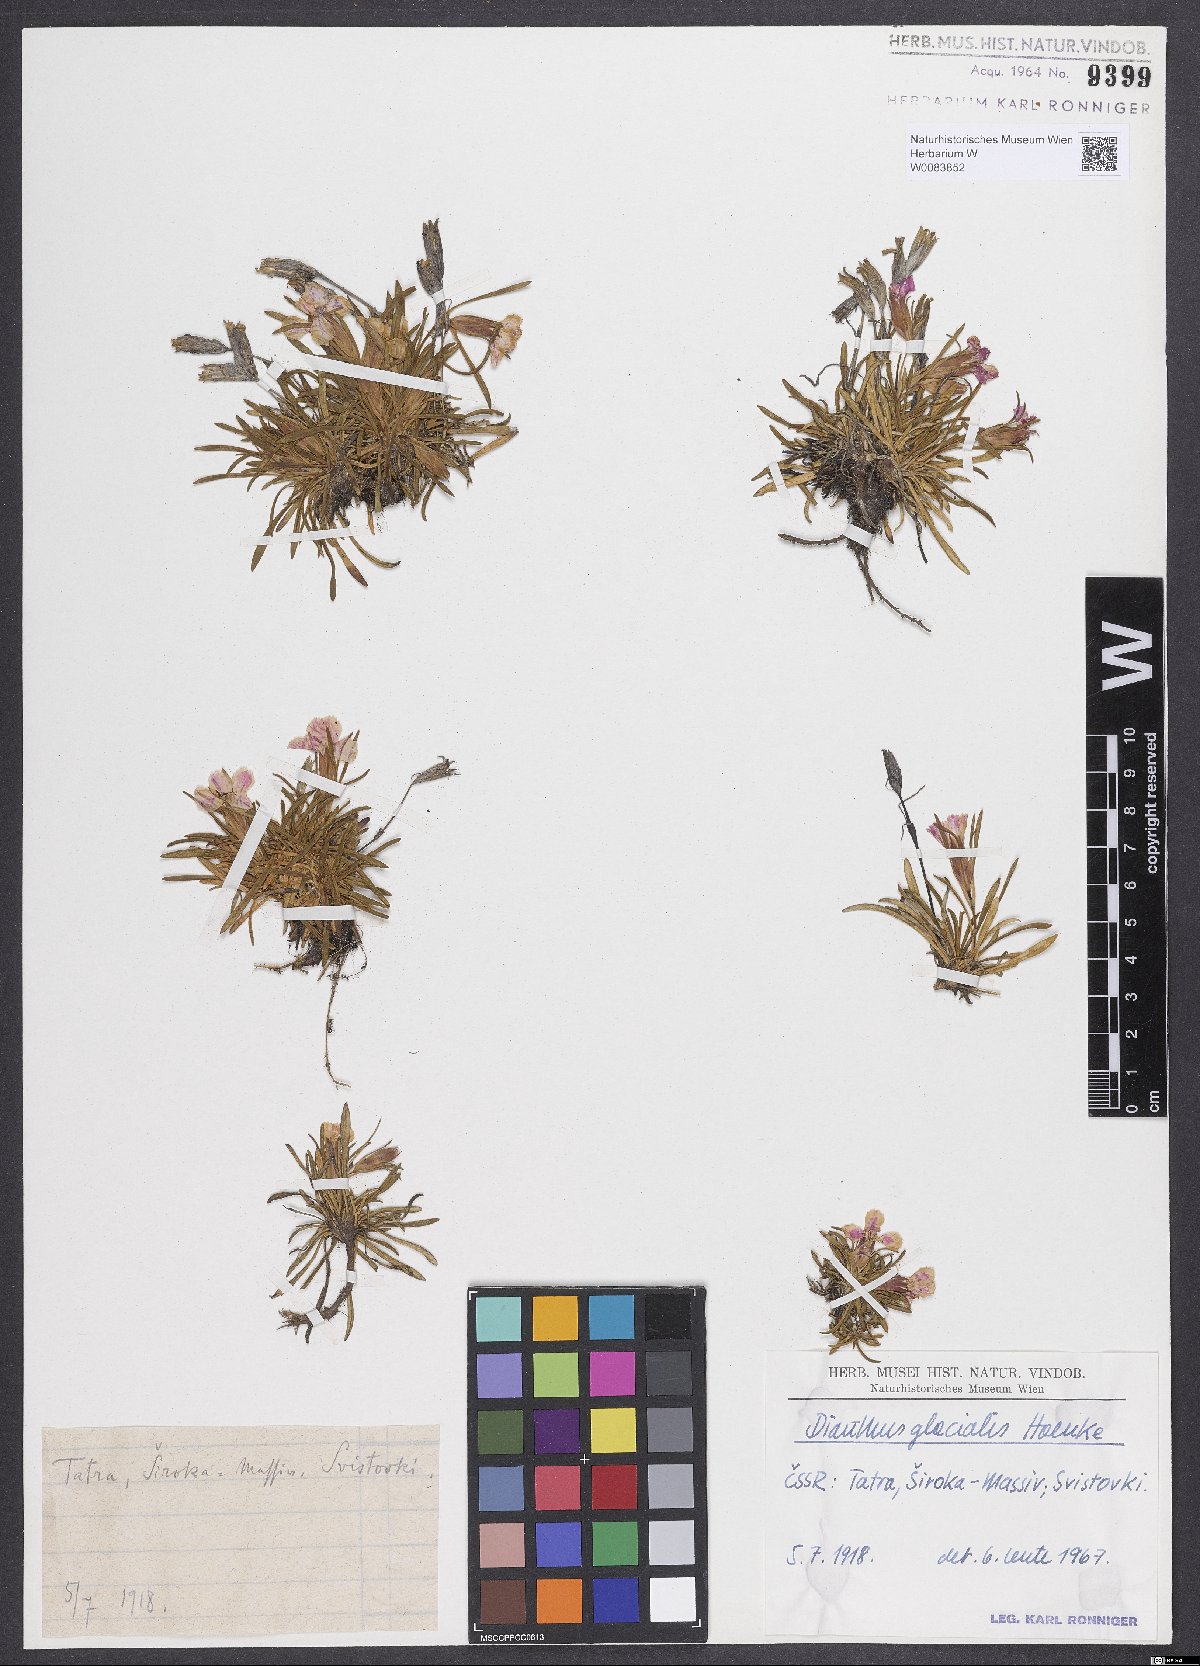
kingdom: Plantae
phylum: Tracheophyta
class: Magnoliopsida
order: Caryophyllales
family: Caryophyllaceae
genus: Dianthus
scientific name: Dianthus glacialis
